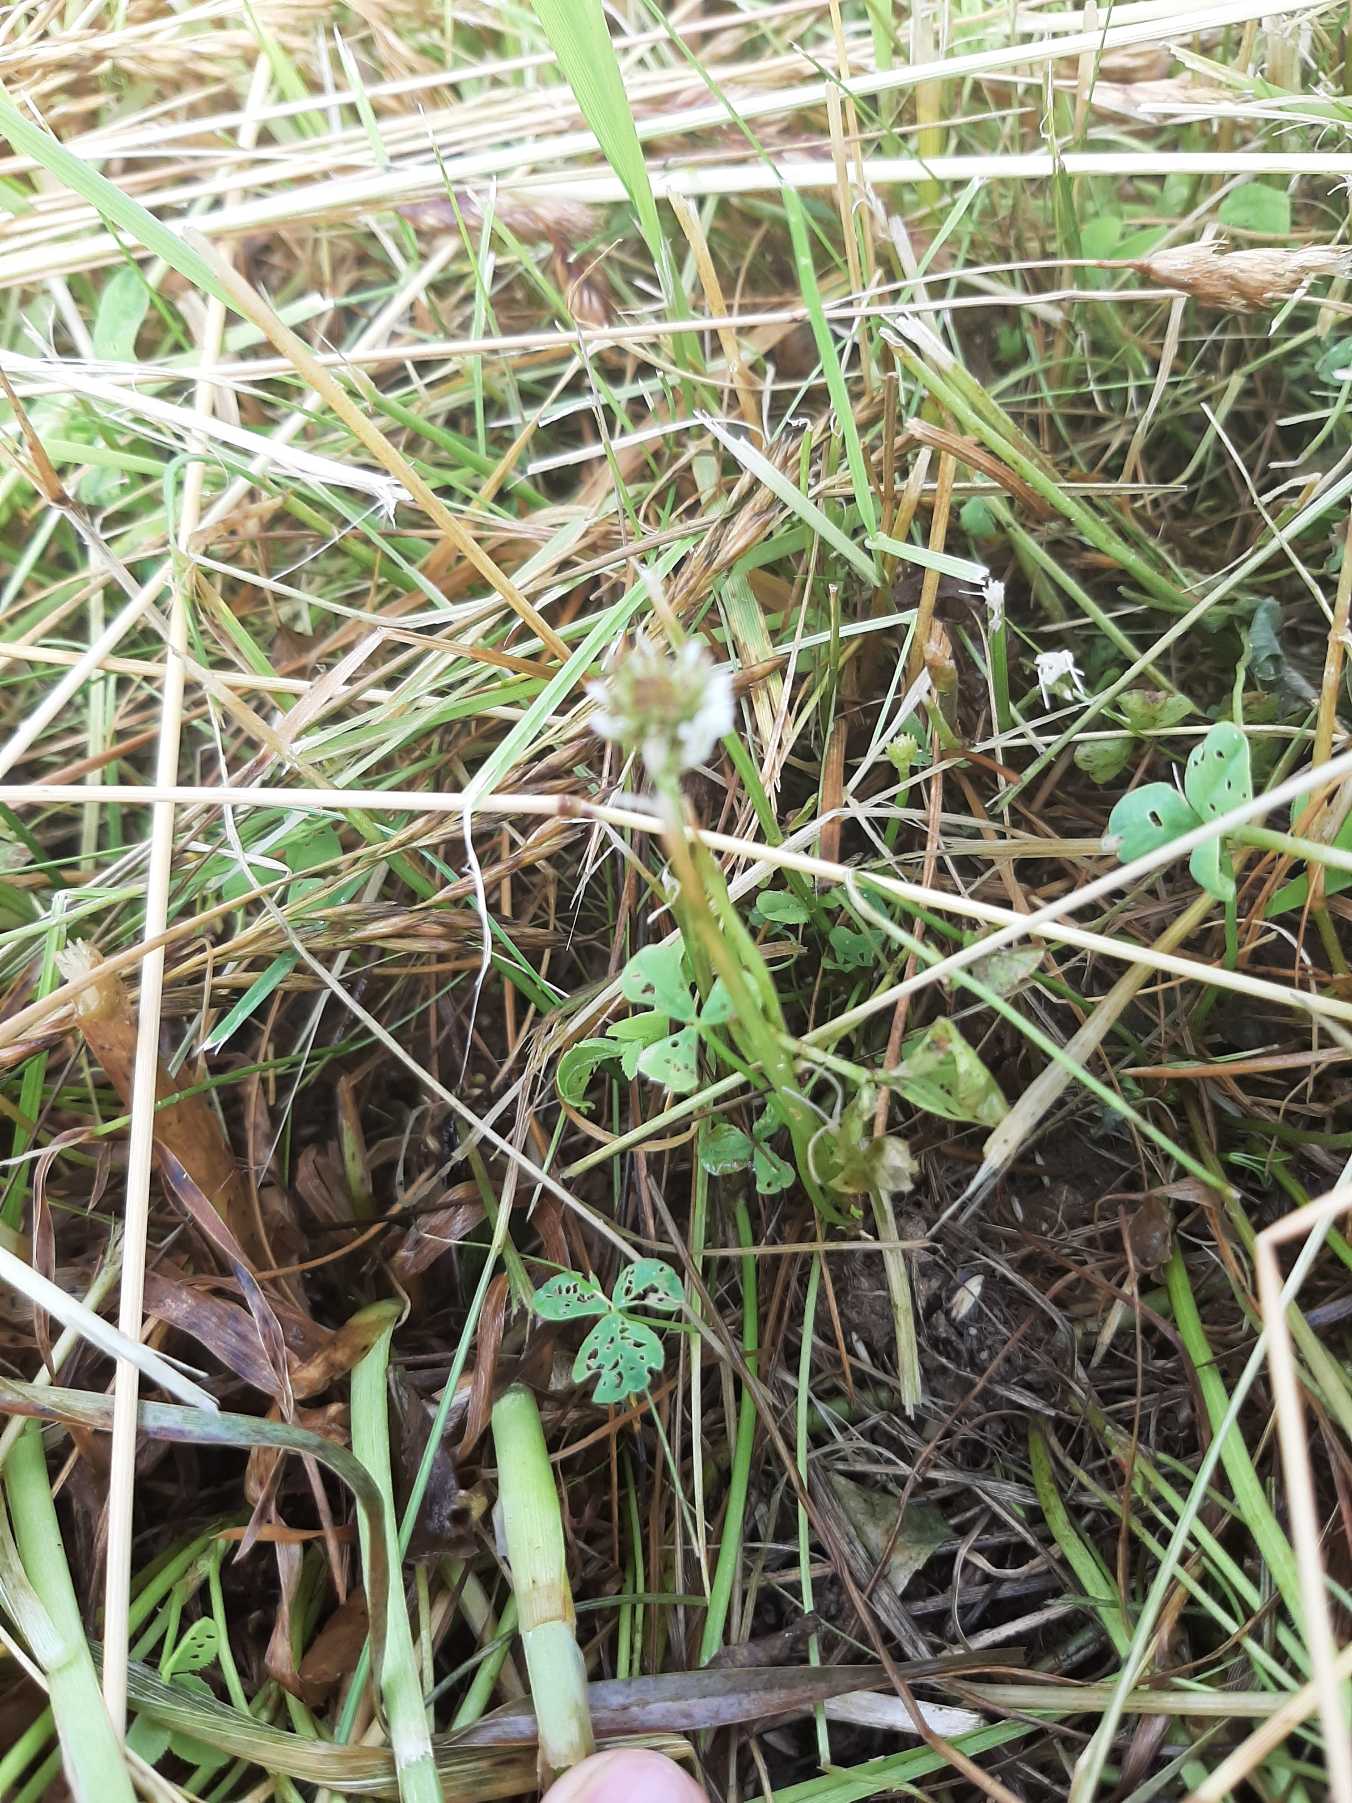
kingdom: Plantae
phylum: Tracheophyta
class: Magnoliopsida
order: Fabales
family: Fabaceae
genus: Trifolium
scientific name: Trifolium repens
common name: Hvid-kløver
